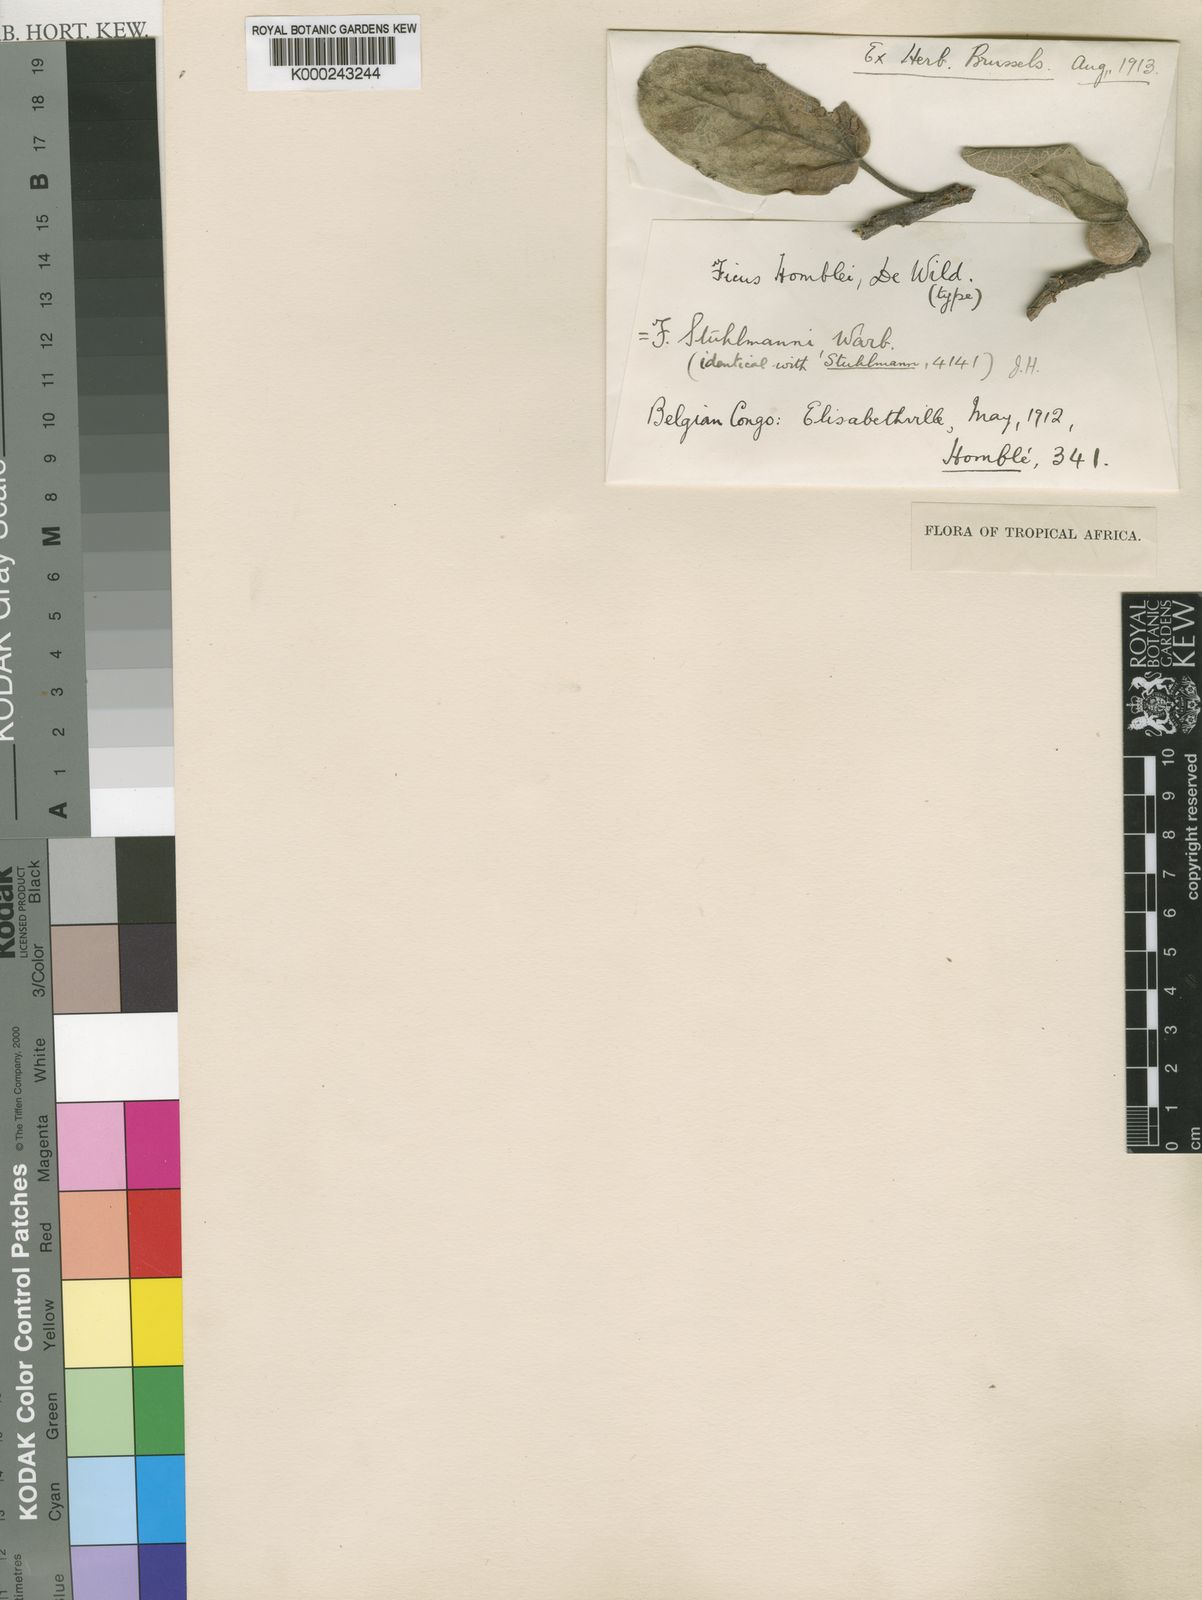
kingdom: Plantae
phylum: Tracheophyta
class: Magnoliopsida
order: Rosales
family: Moraceae
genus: Ficus
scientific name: Ficus stuhlmannii
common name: Lowveld fig
